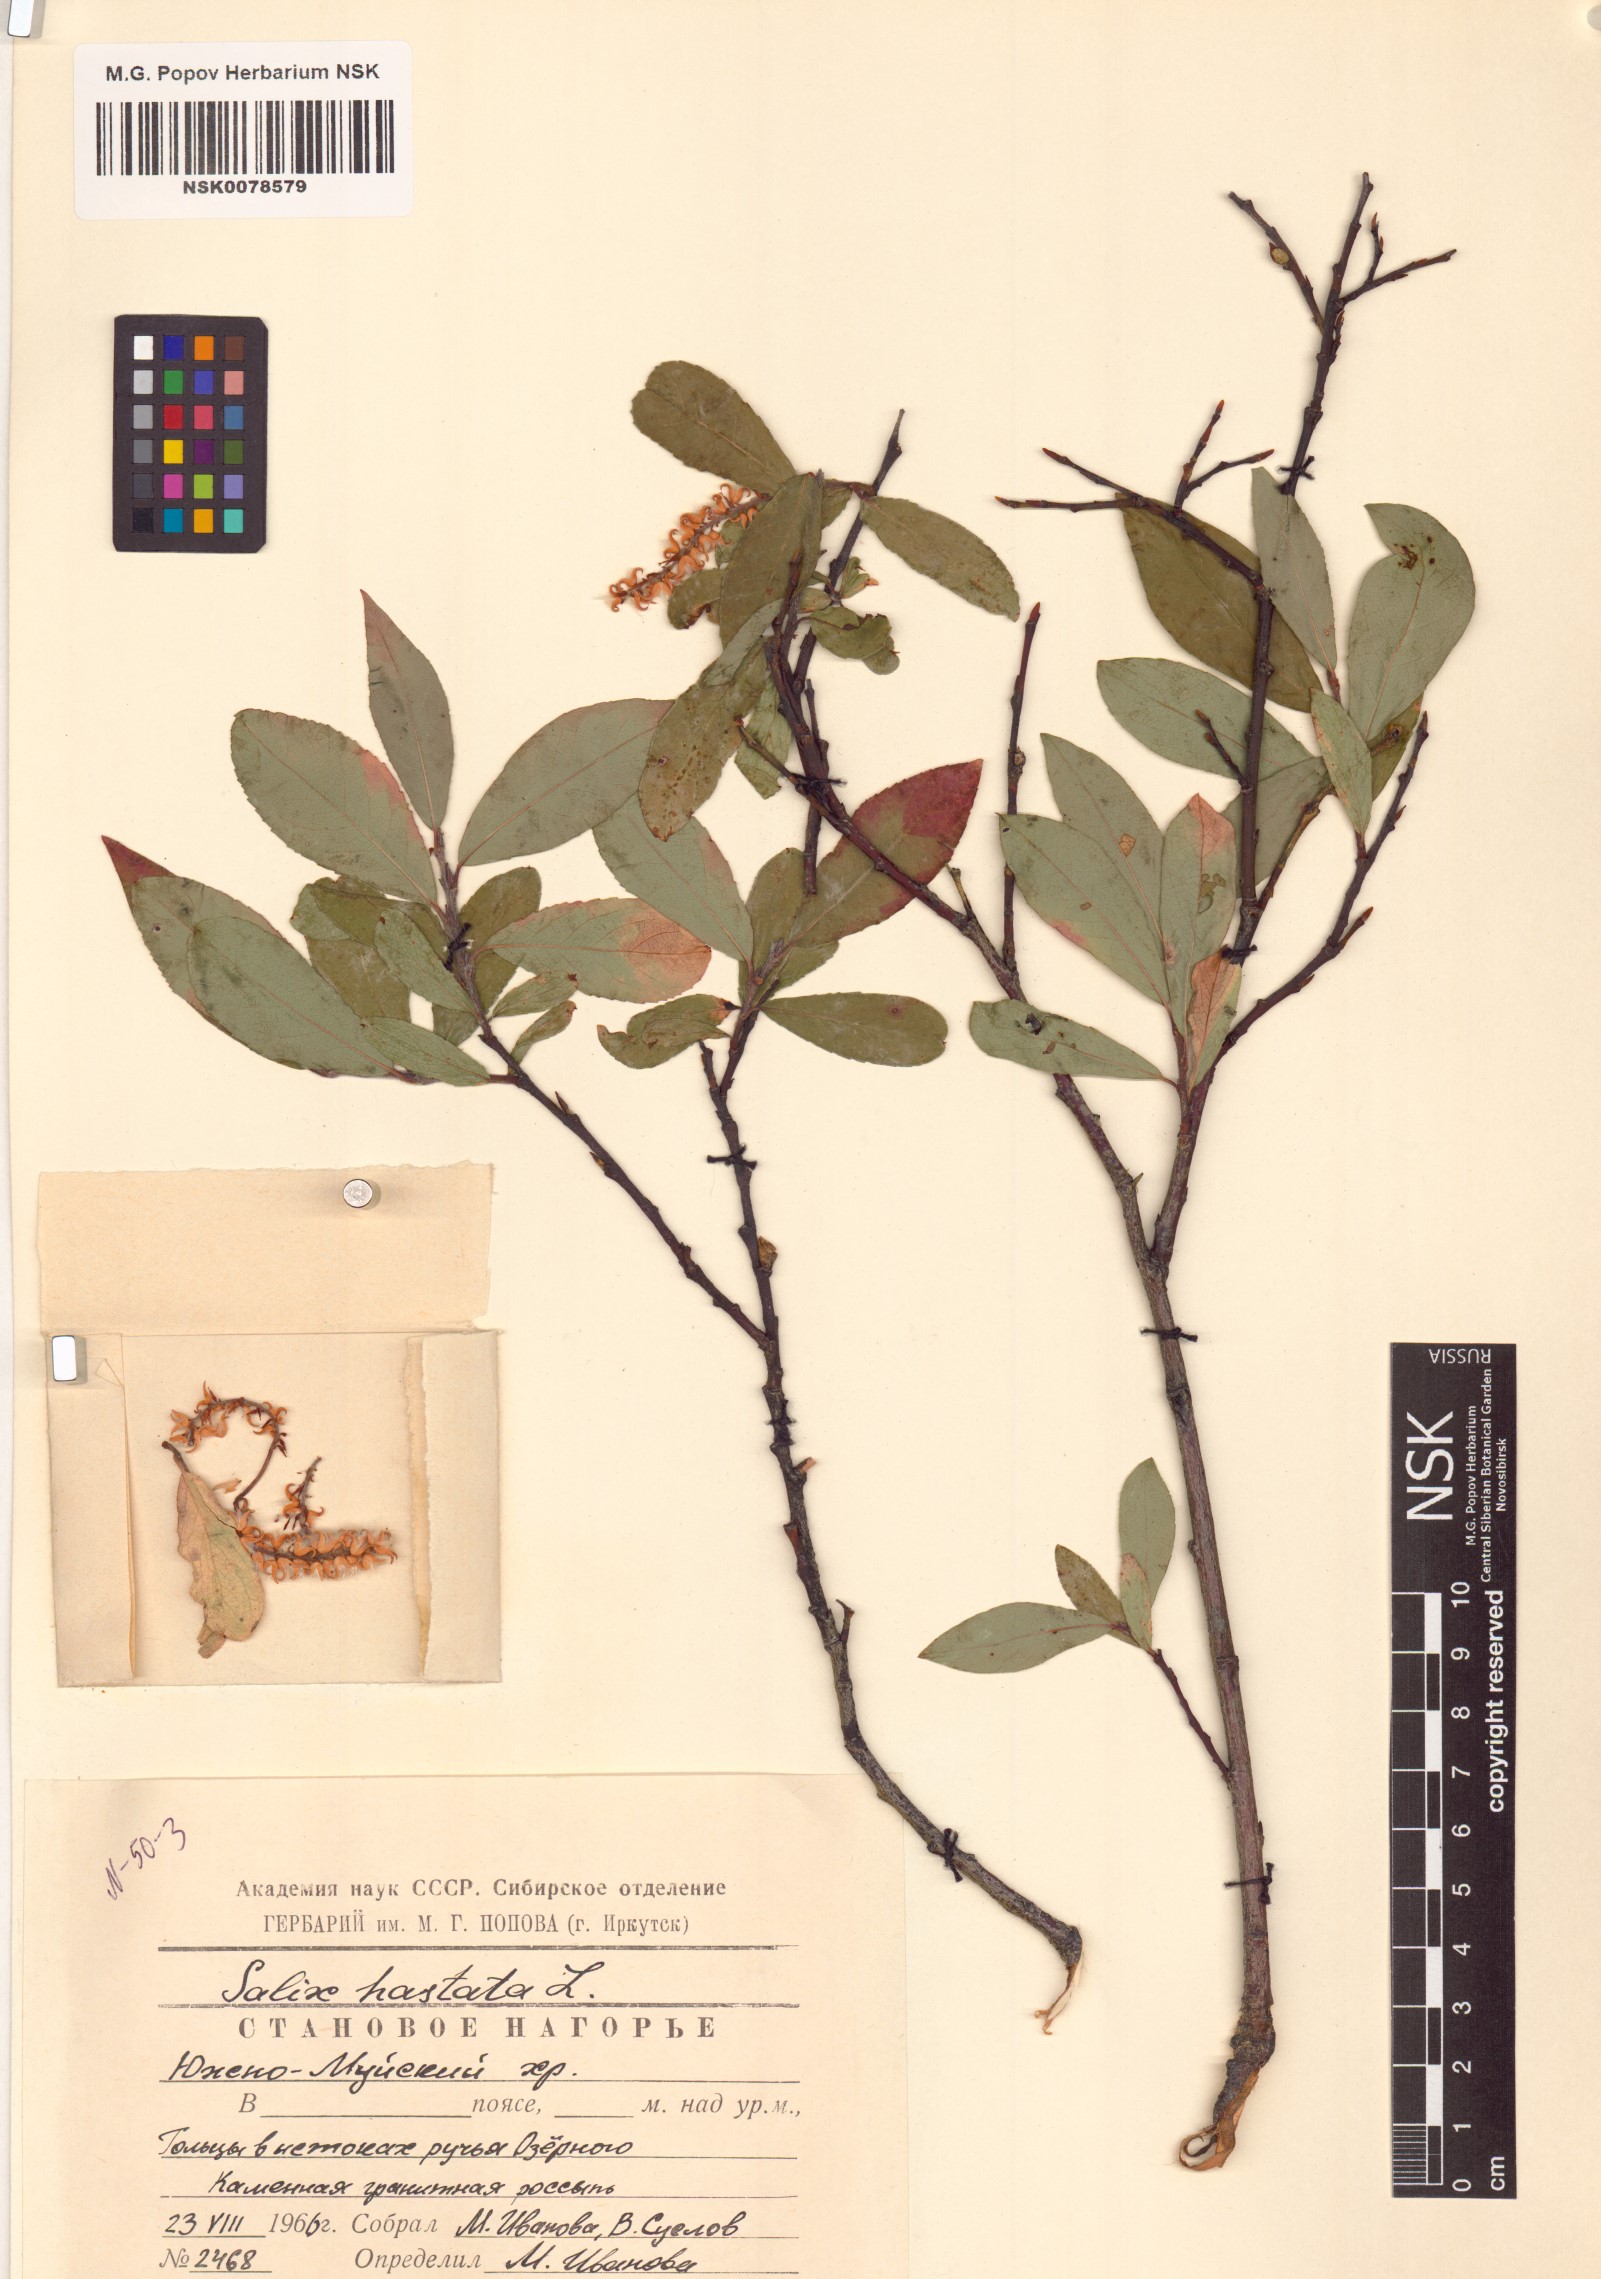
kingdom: Plantae
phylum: Tracheophyta
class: Magnoliopsida
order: Malpighiales
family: Salicaceae
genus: Salix
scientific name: Salix hastata
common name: Halberd willow
